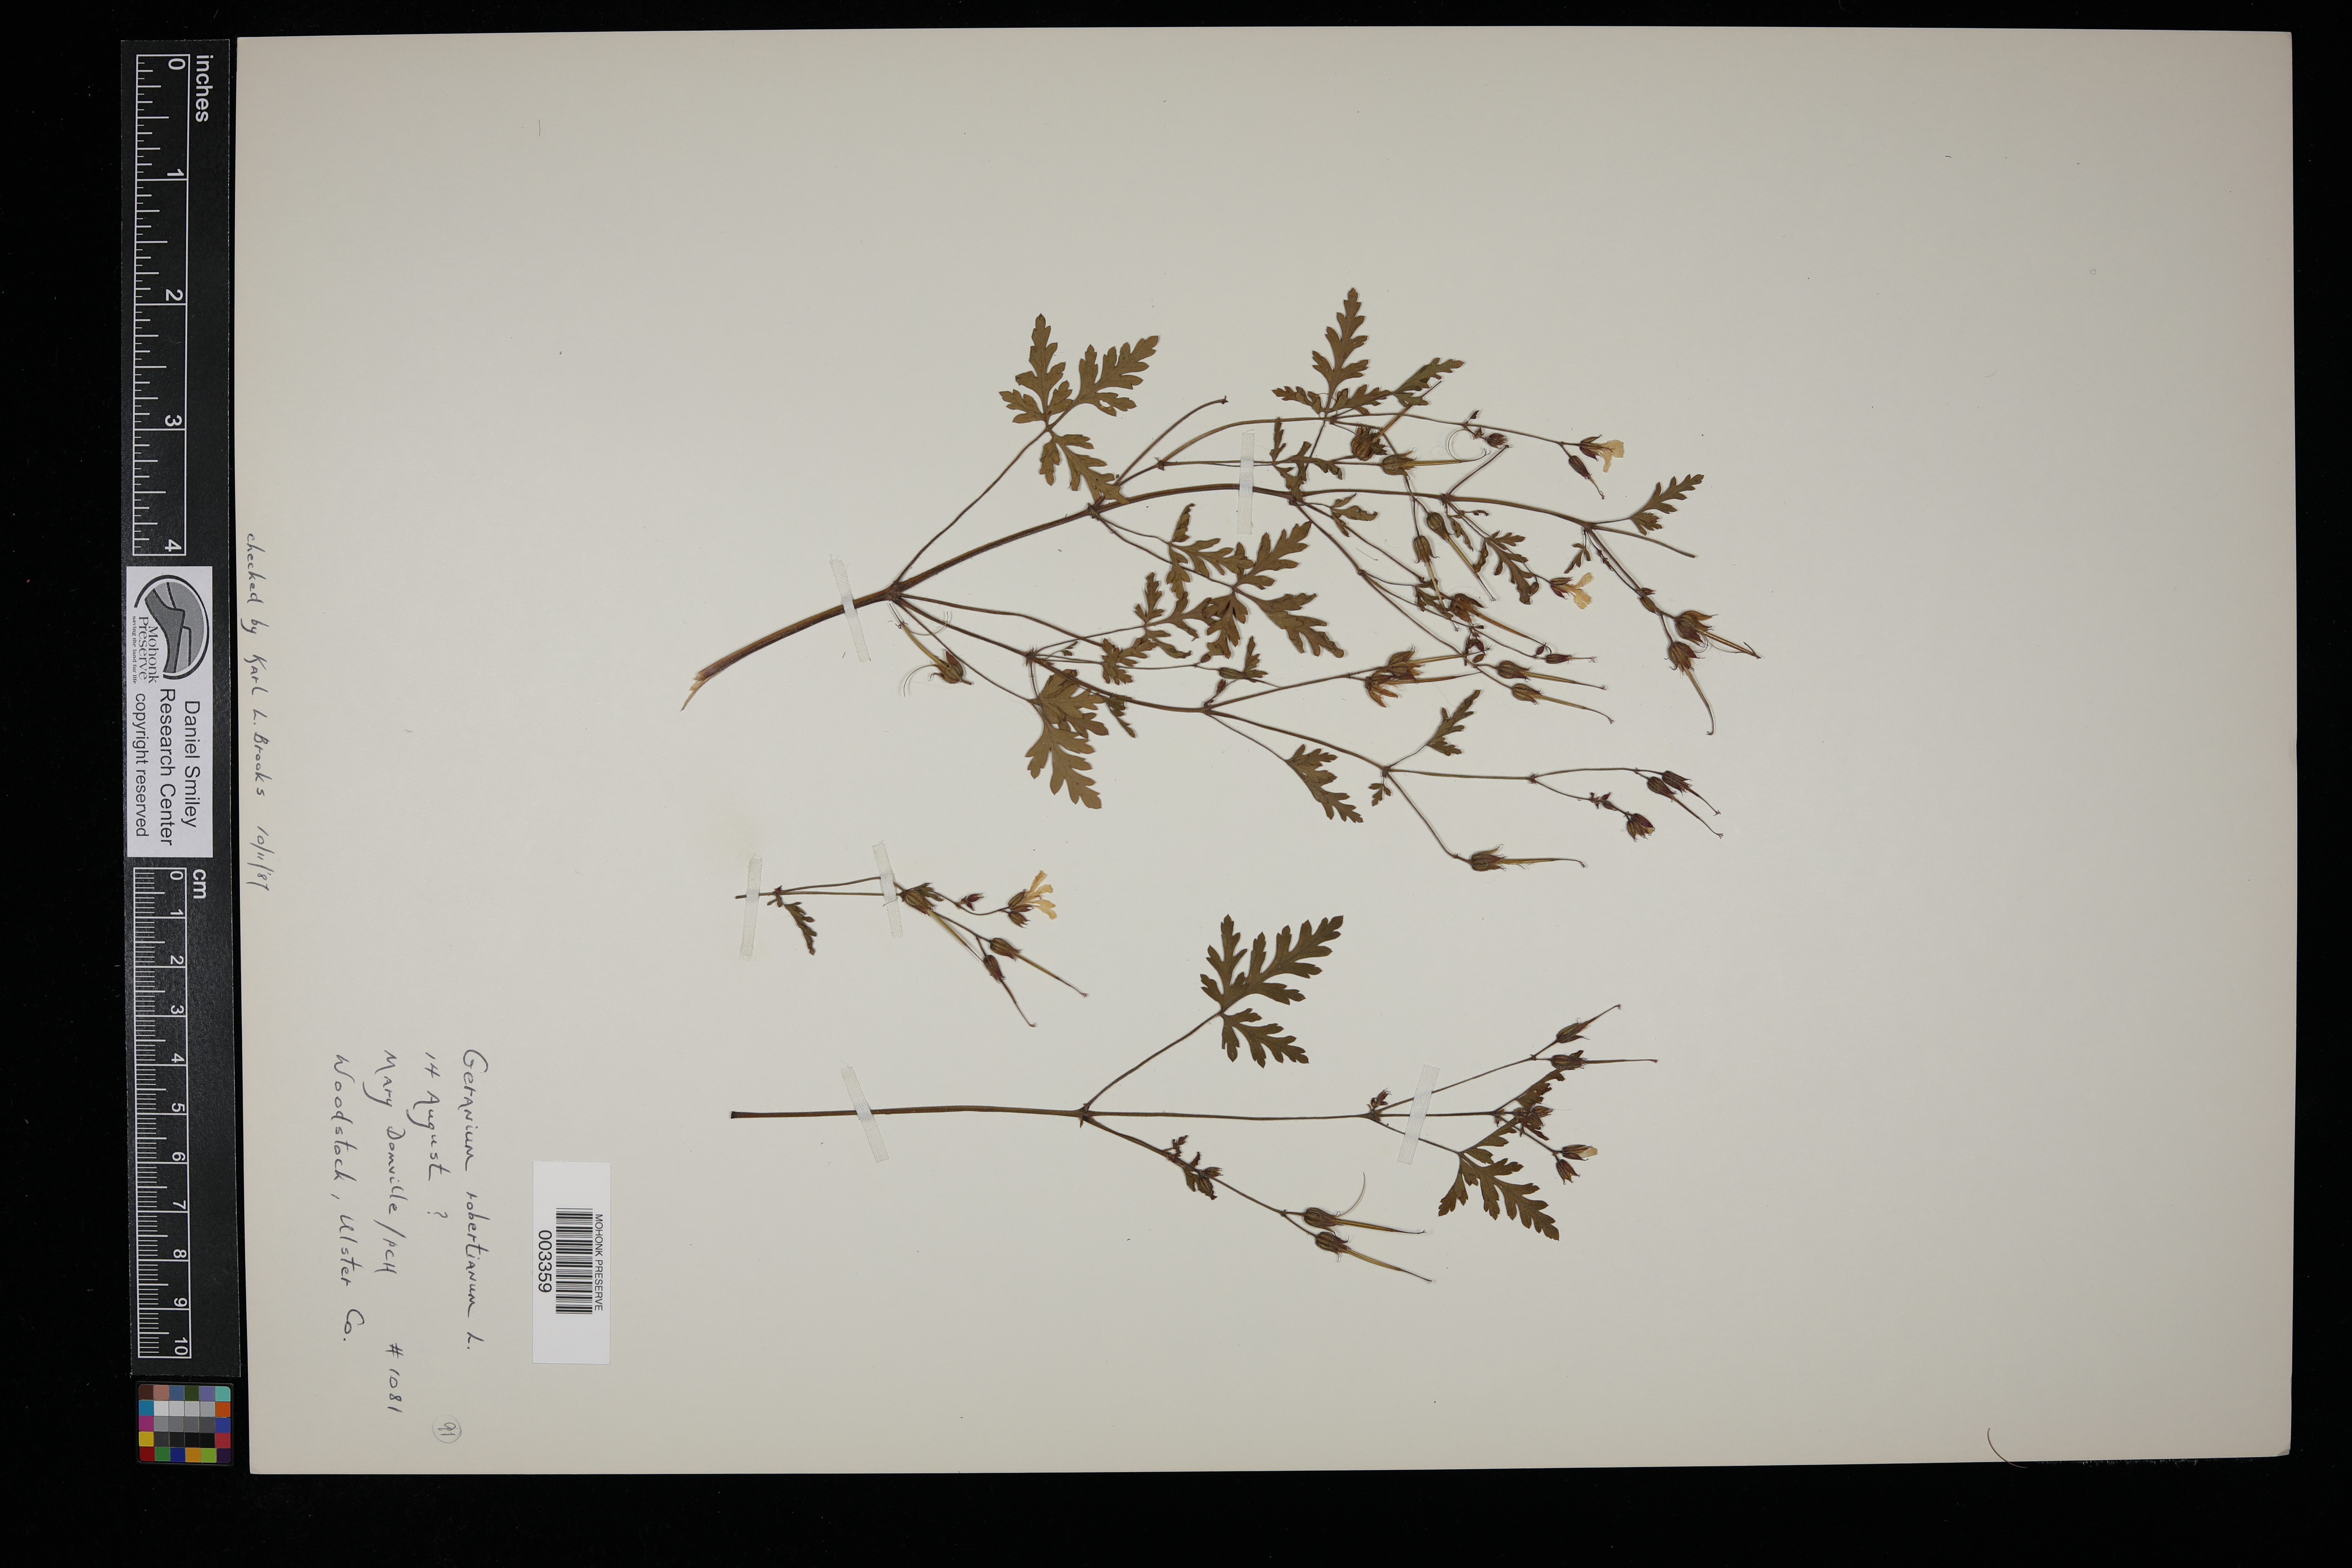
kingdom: Plantae
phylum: Tracheophyta
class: Magnoliopsida
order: Geraniales
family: Geraniaceae
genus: Geranium
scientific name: Geranium robertianum
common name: Herb-robert
